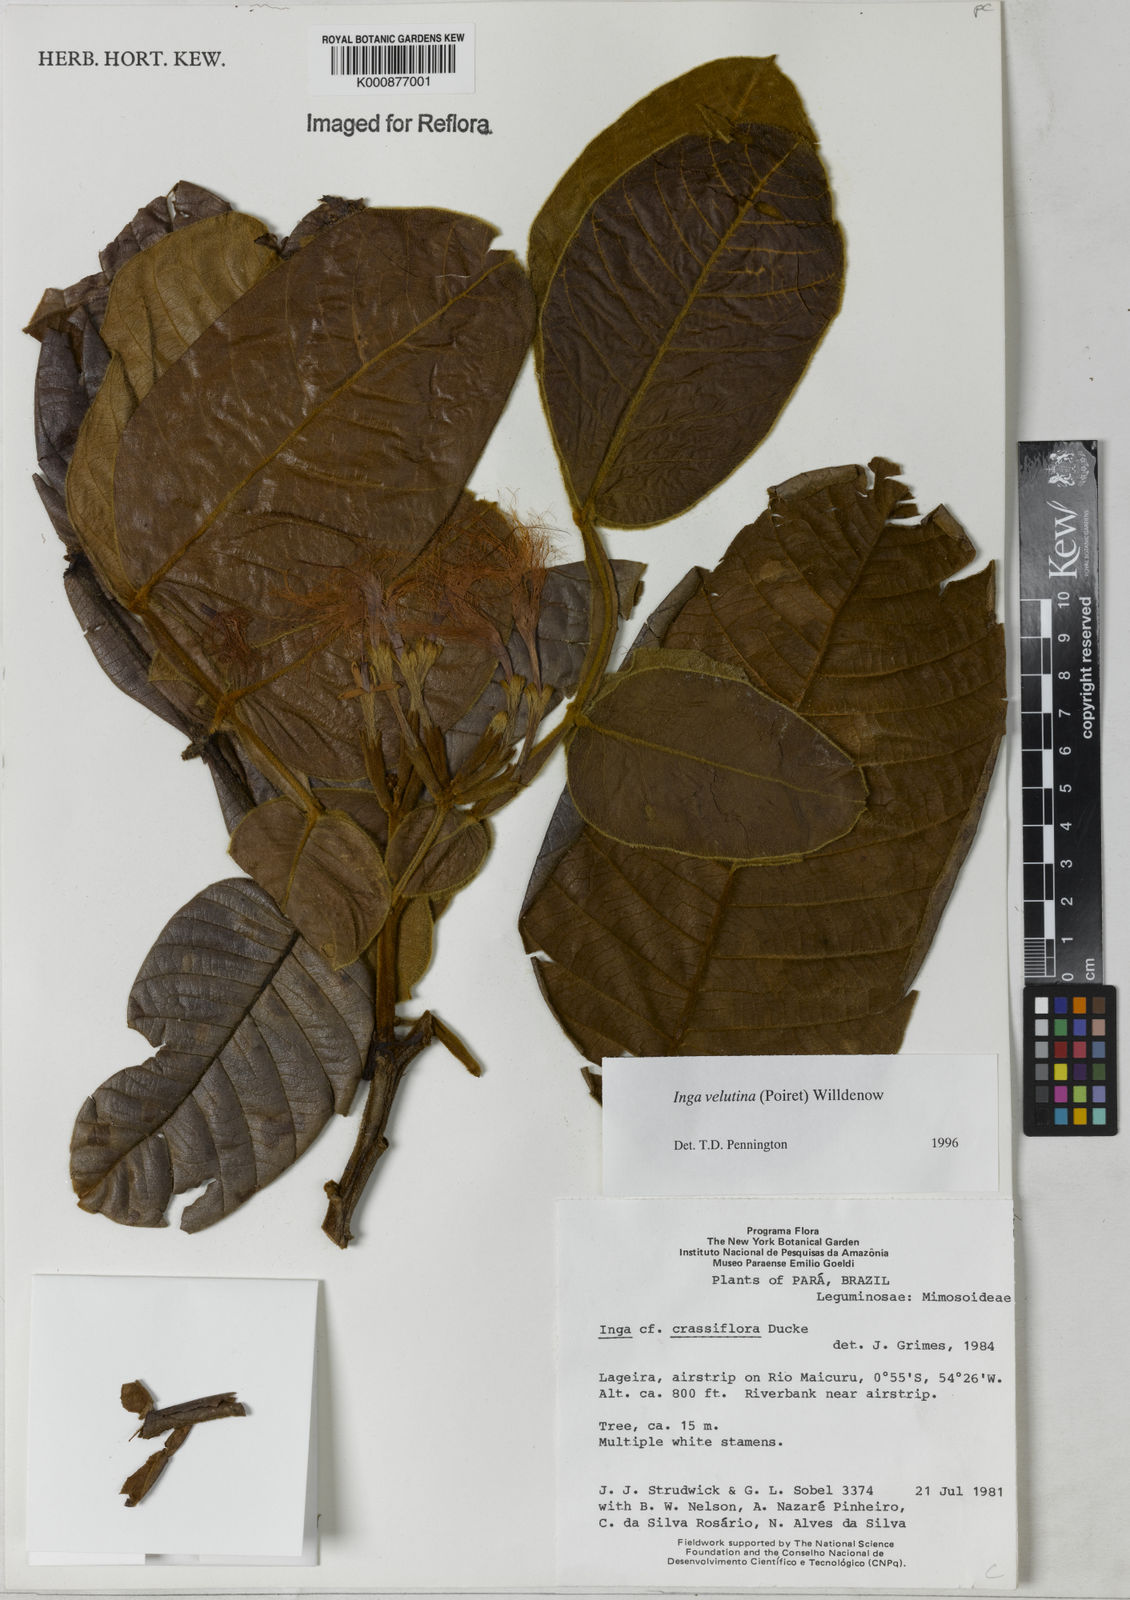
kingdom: Plantae
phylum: Tracheophyta
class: Magnoliopsida
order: Fabales
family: Fabaceae
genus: Inga
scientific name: Inga velutina
